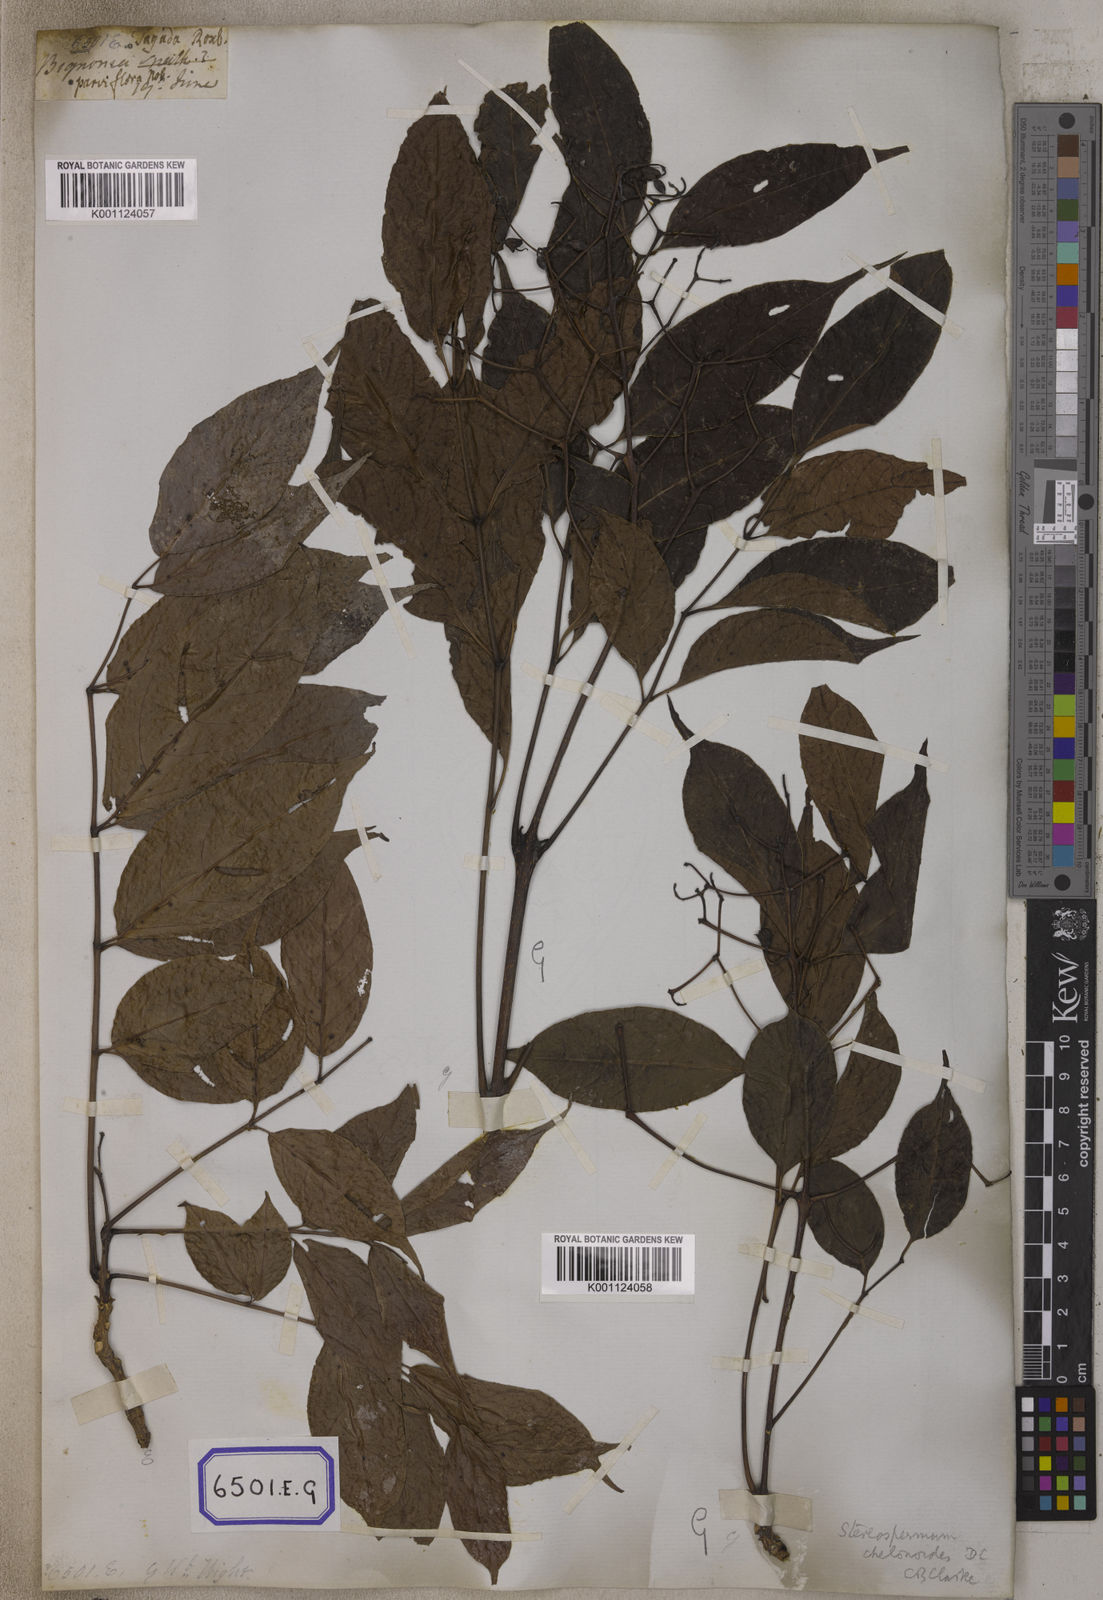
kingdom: Plantae
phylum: Tracheophyta
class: Magnoliopsida
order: Lamiales
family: Bignoniaceae
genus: Stereospermum
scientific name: Stereospermum chelonoides
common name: Fragrant padritree
